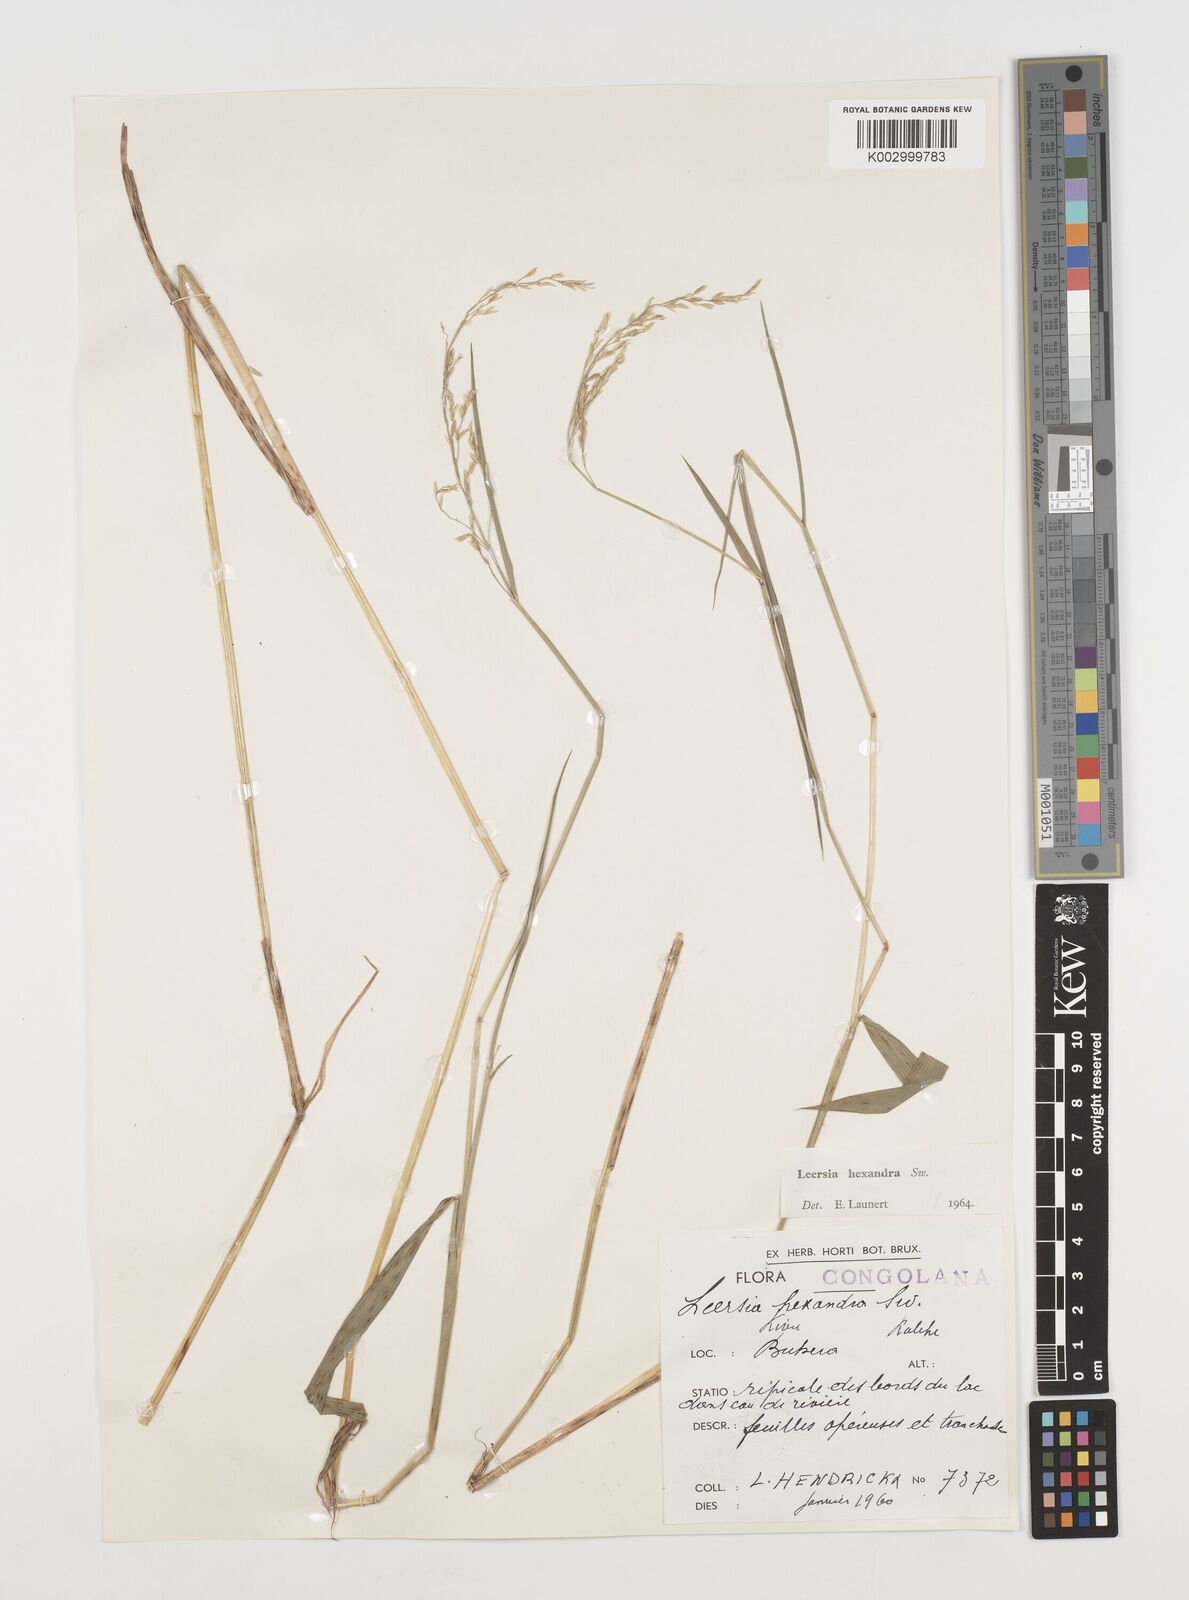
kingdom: Plantae
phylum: Tracheophyta
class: Liliopsida
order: Poales
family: Poaceae
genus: Leersia
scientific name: Leersia hexandra
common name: Southern cut grass
